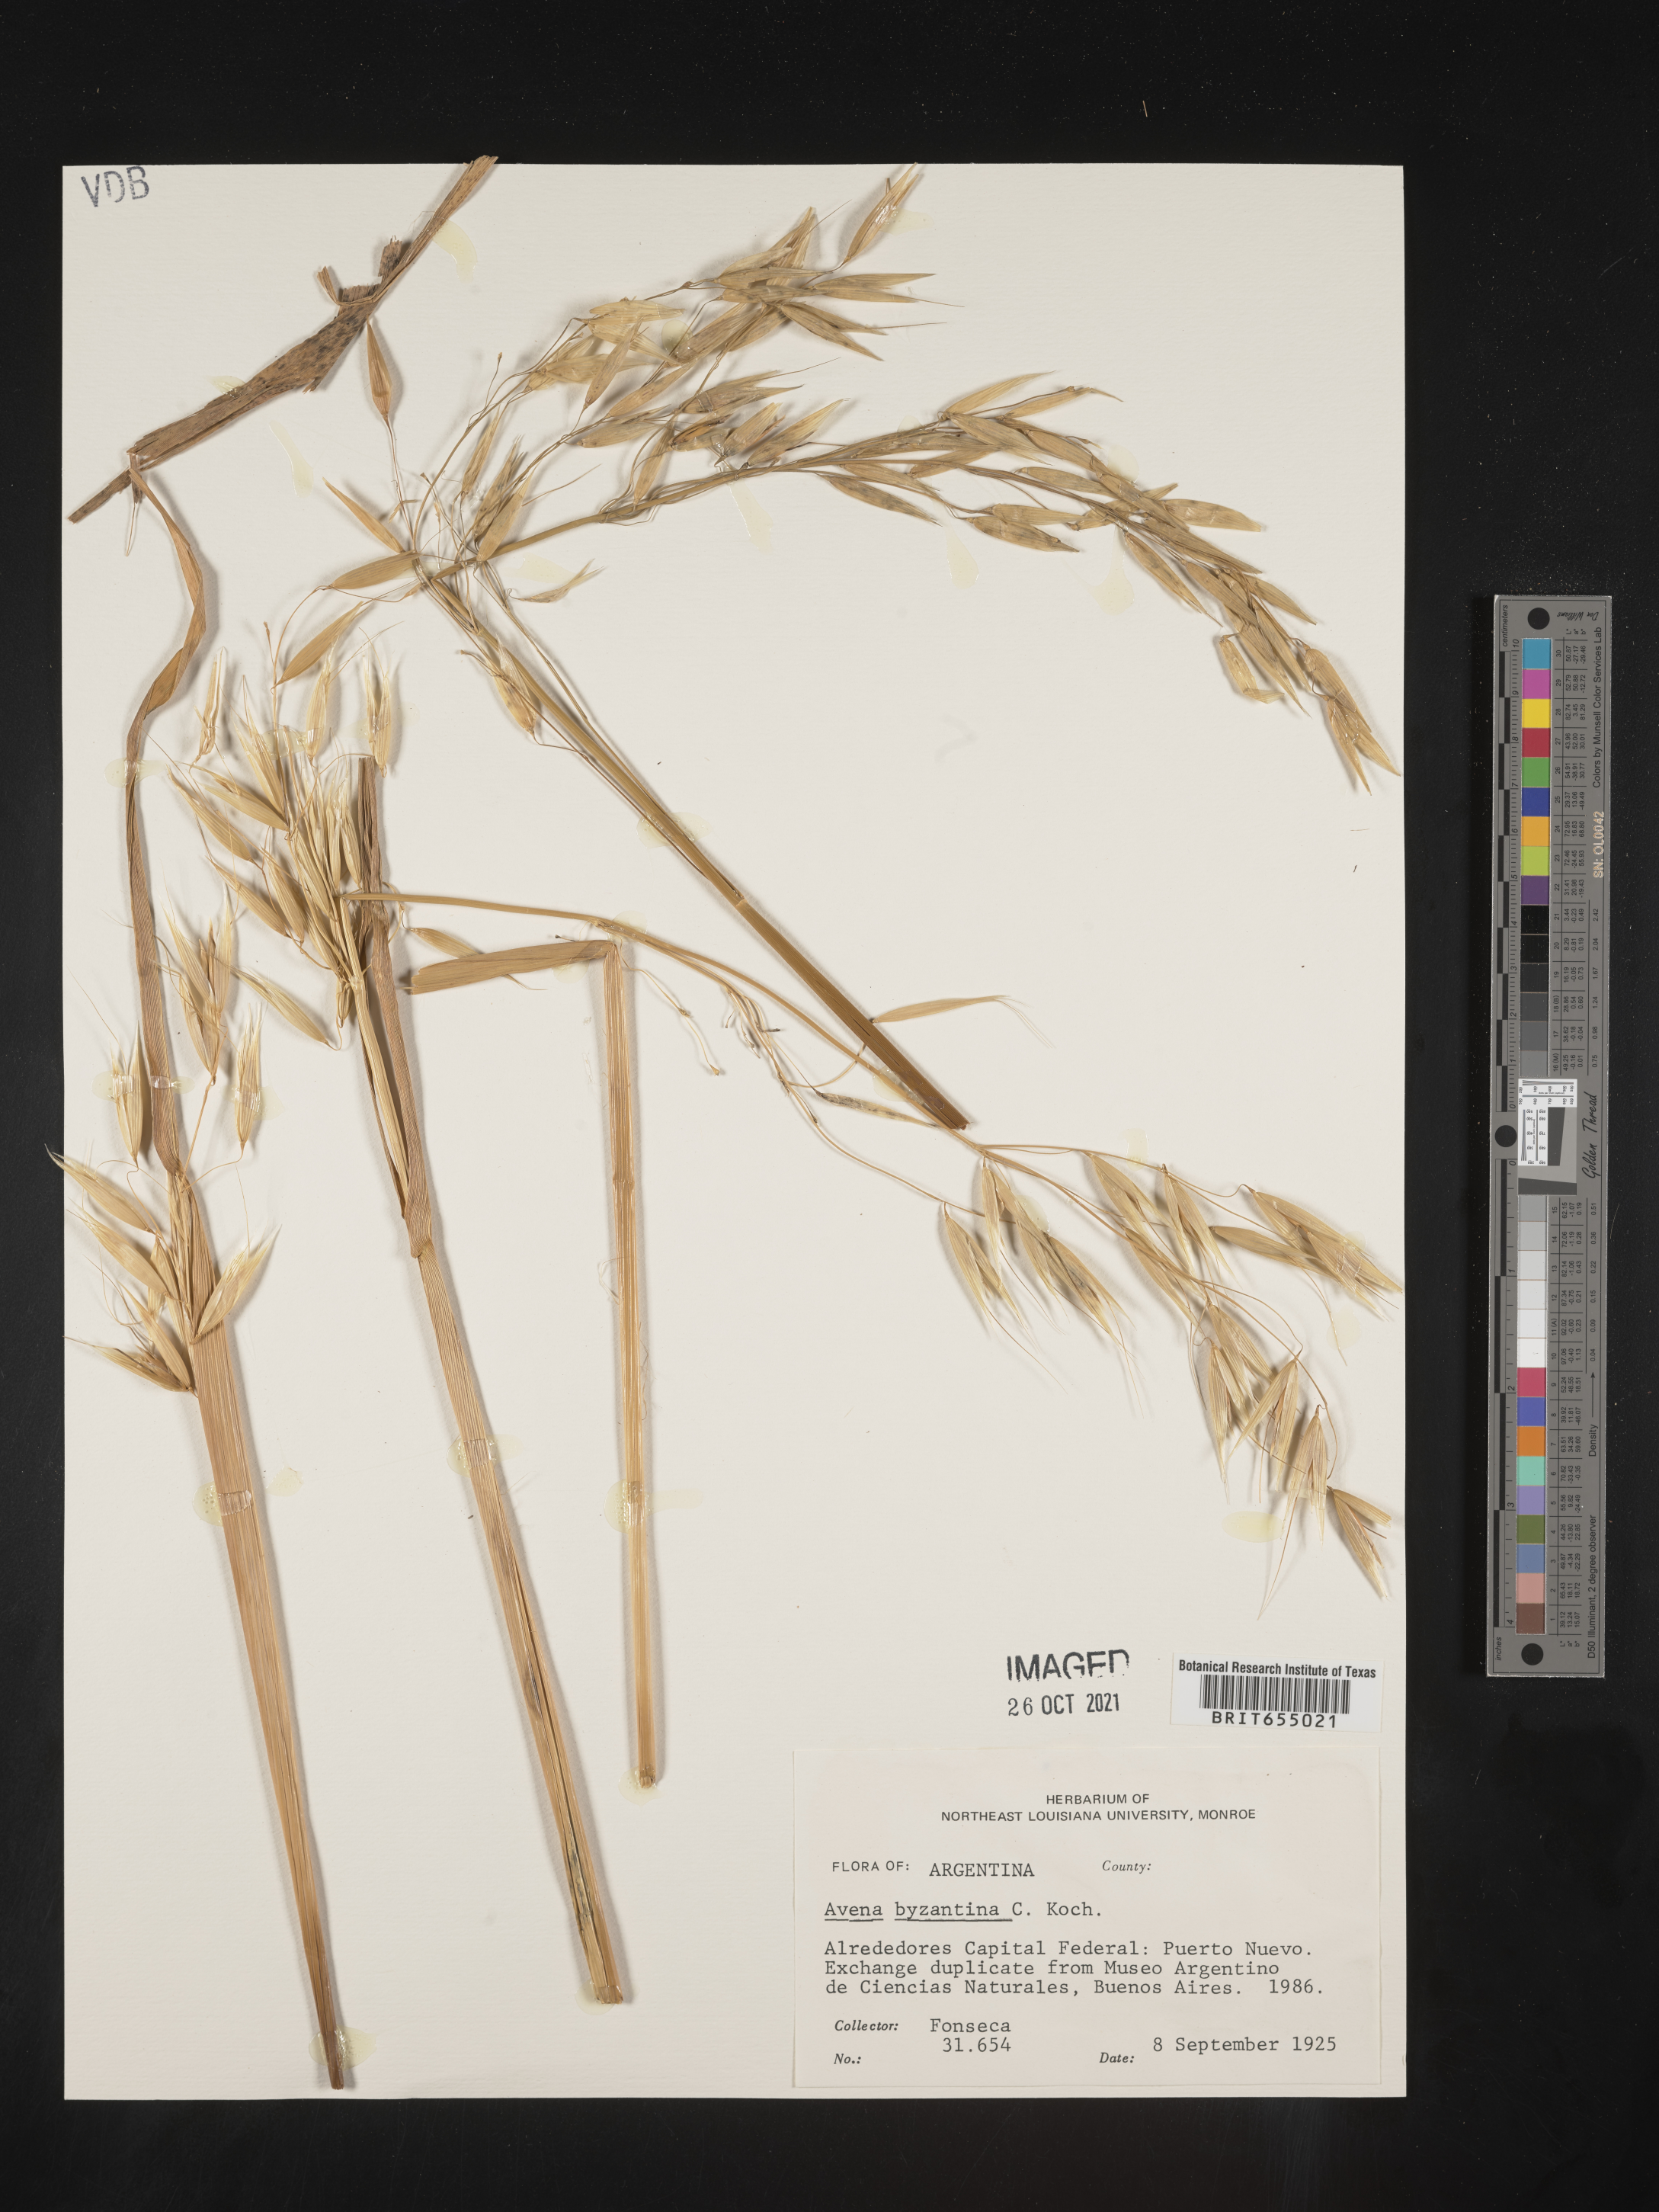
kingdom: Plantae
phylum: Tracheophyta
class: Liliopsida
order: Poales
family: Poaceae
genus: Avena
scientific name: Avena
